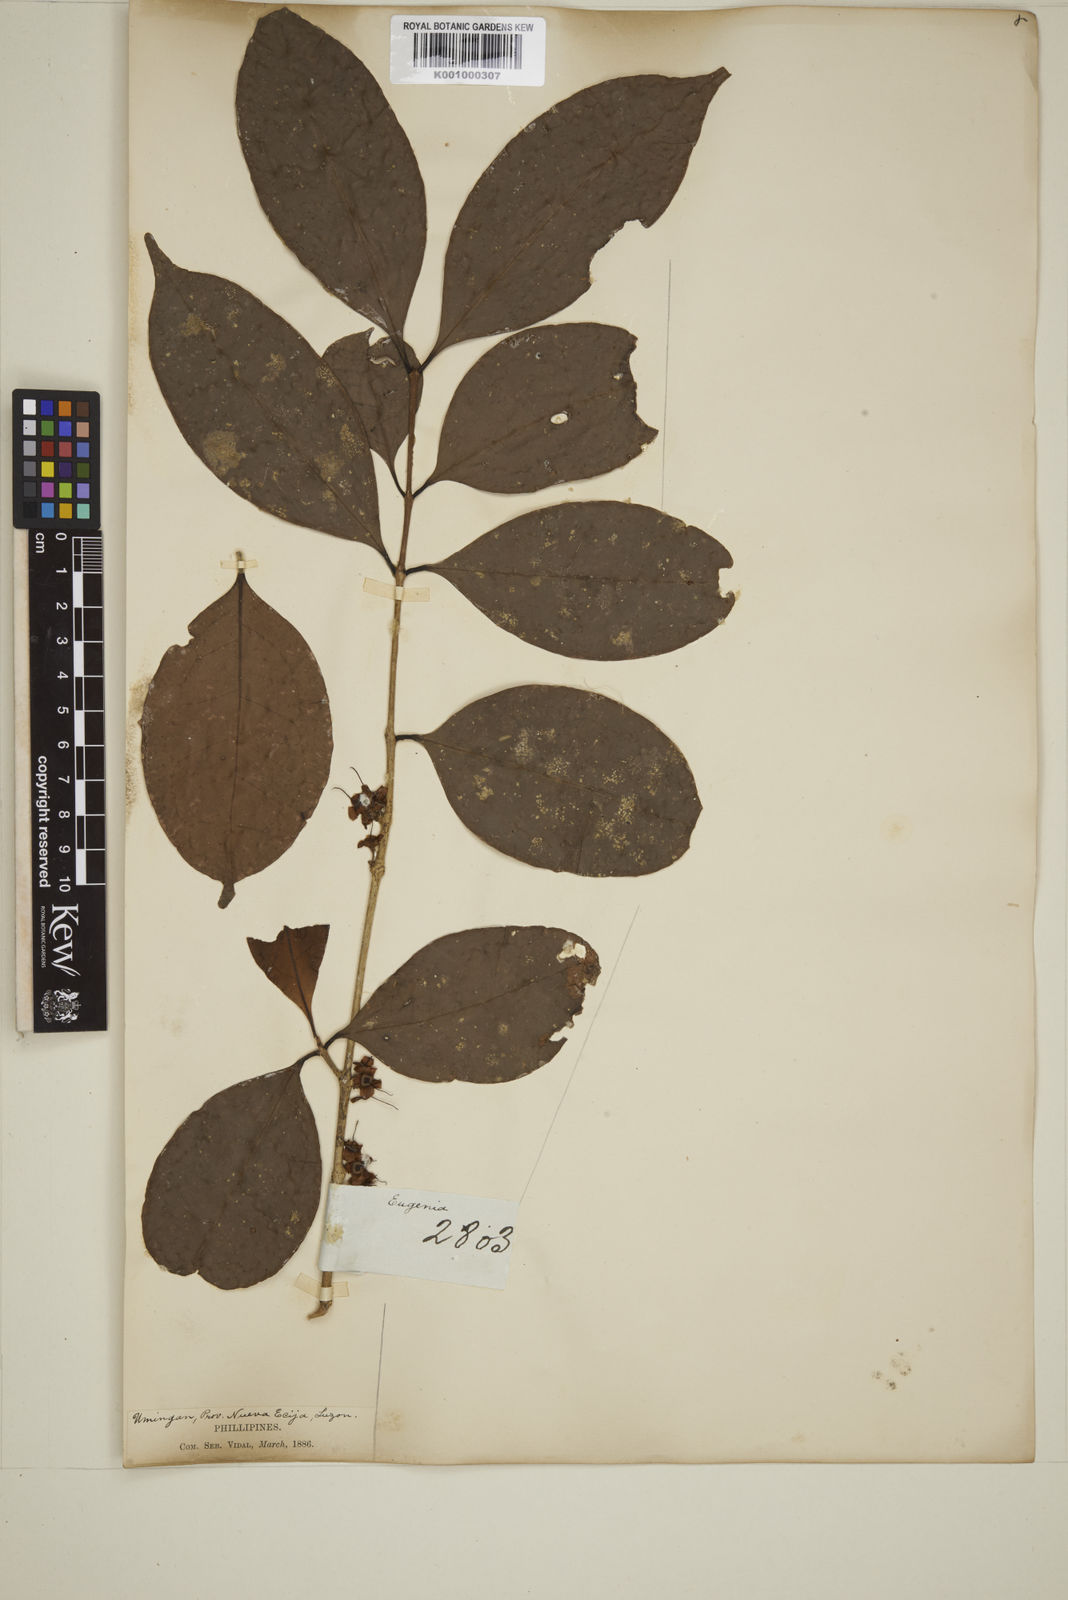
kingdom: Plantae
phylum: Tracheophyta
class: Magnoliopsida
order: Myrtales
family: Myrtaceae
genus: Eugenia
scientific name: Eugenia tulanan
